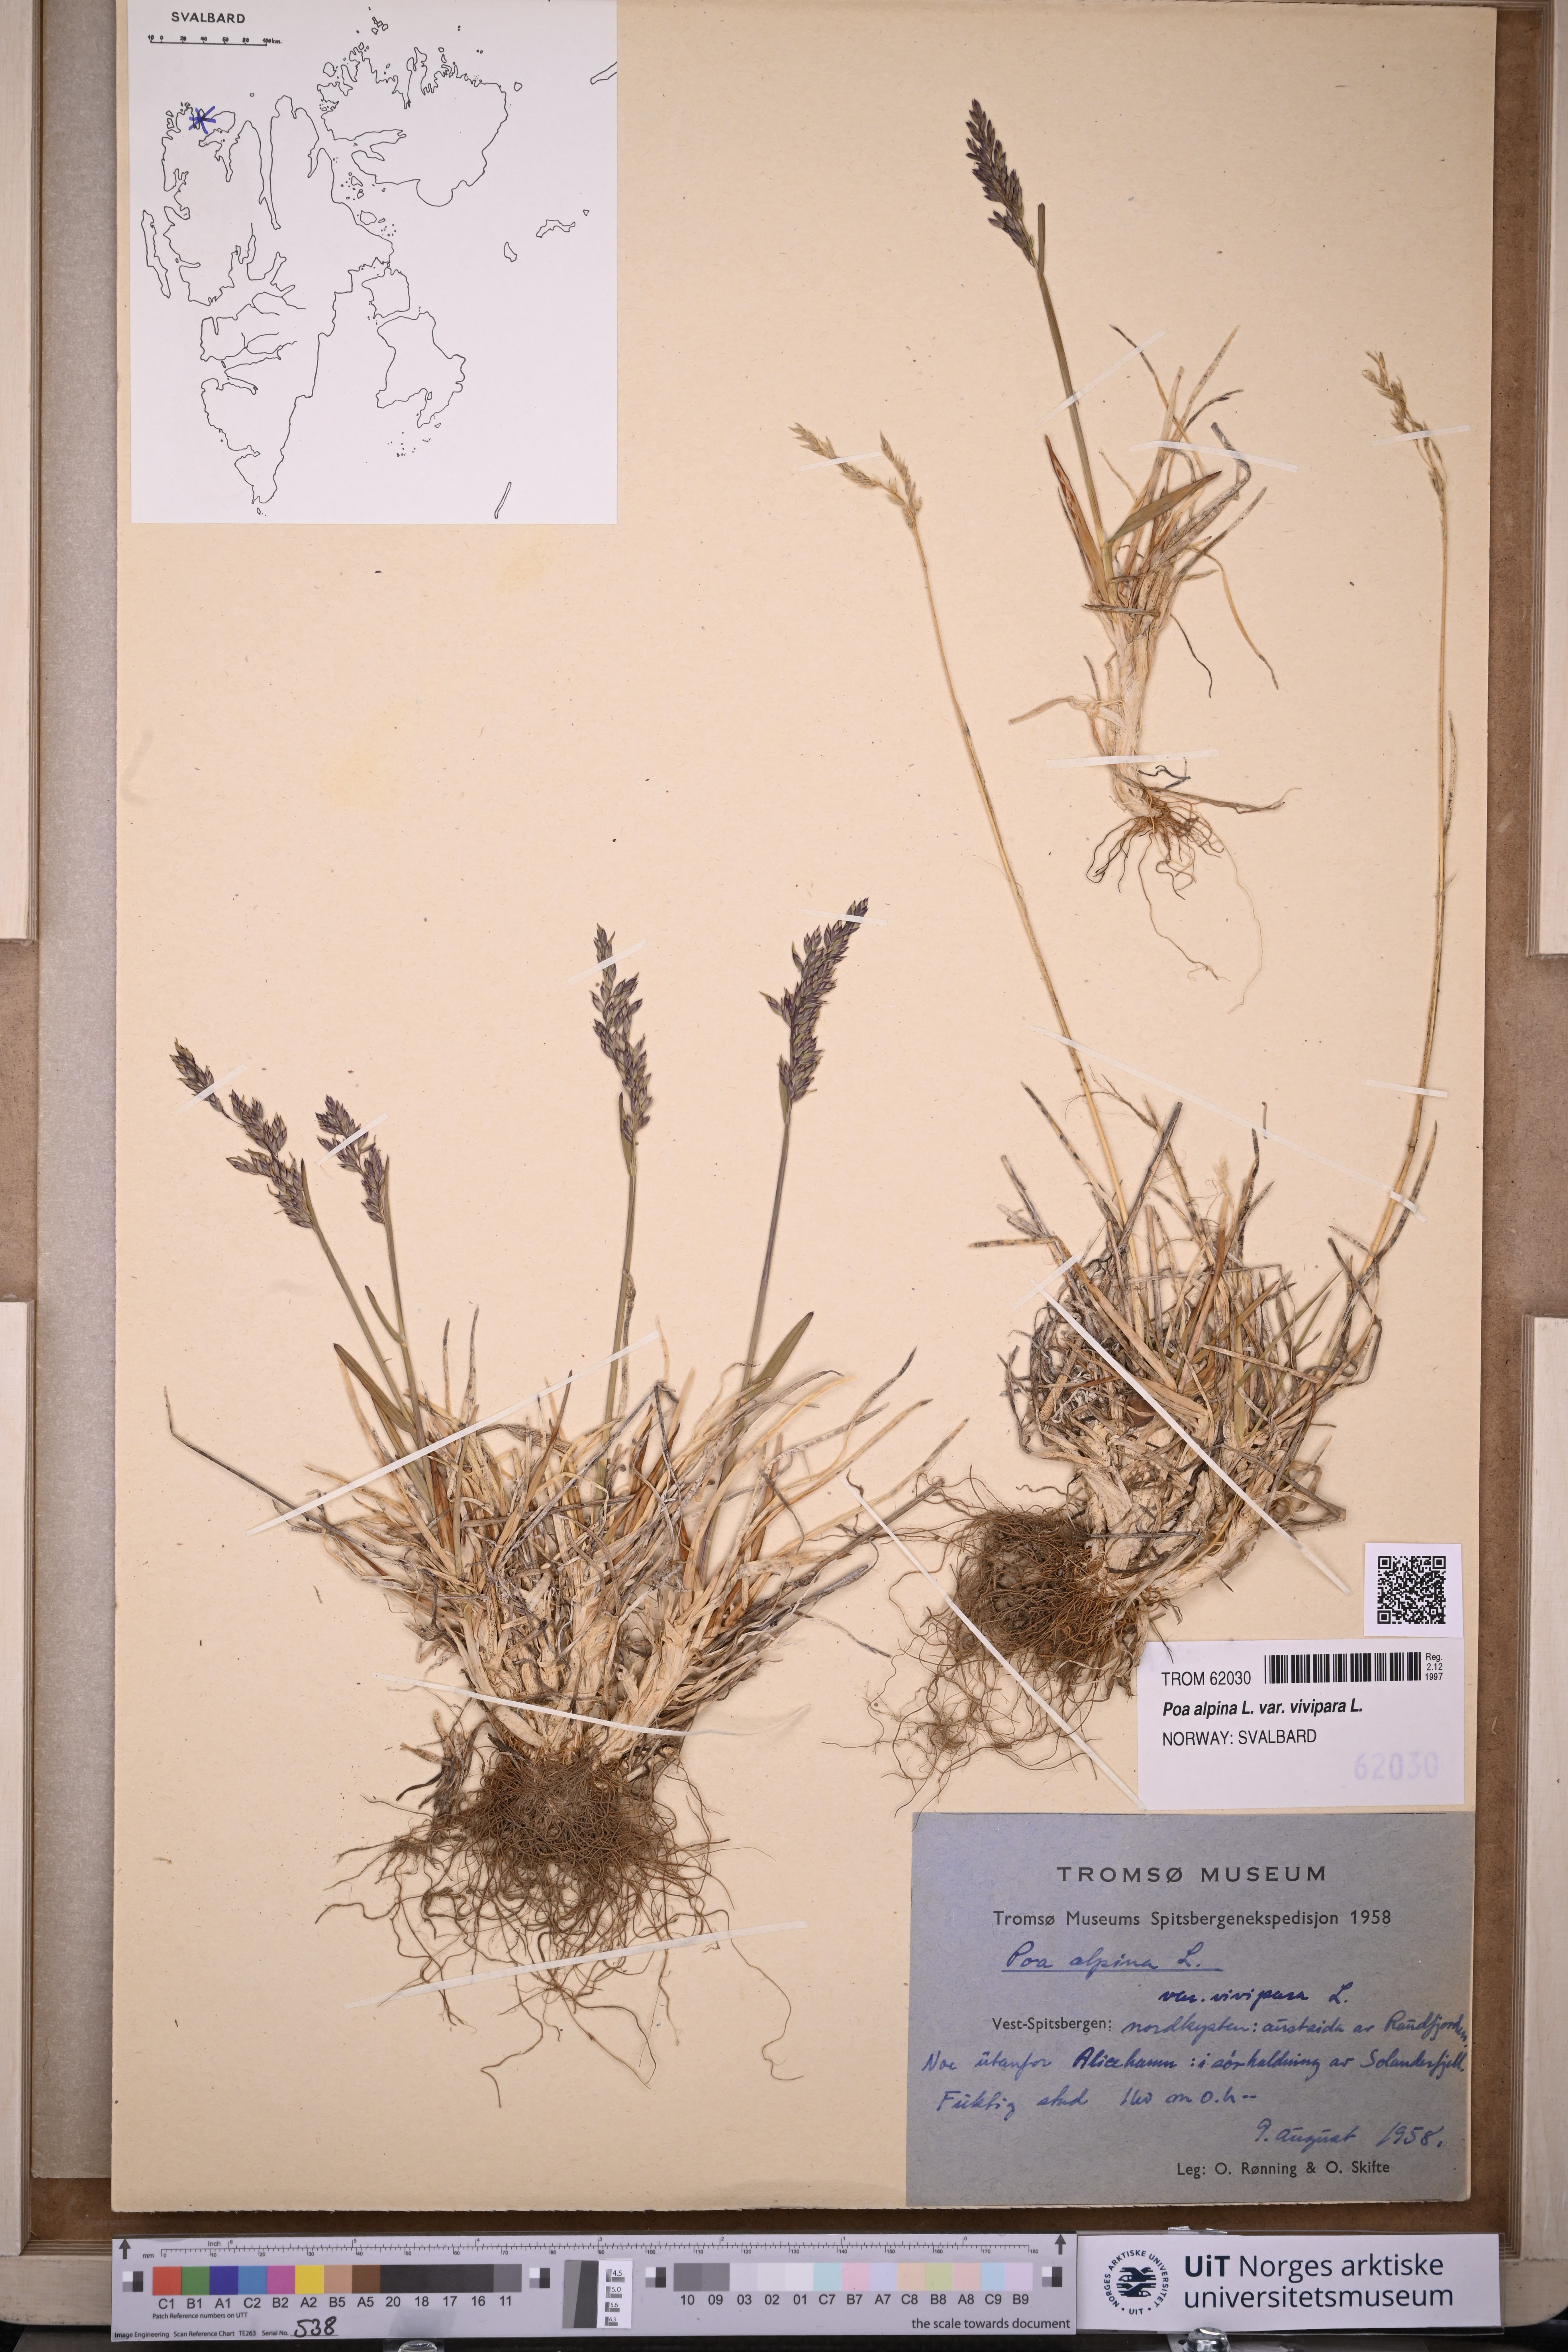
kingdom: Plantae
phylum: Tracheophyta
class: Liliopsida
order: Poales
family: Poaceae
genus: Poa
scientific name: Poa alpina
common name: Alpine bluegrass
